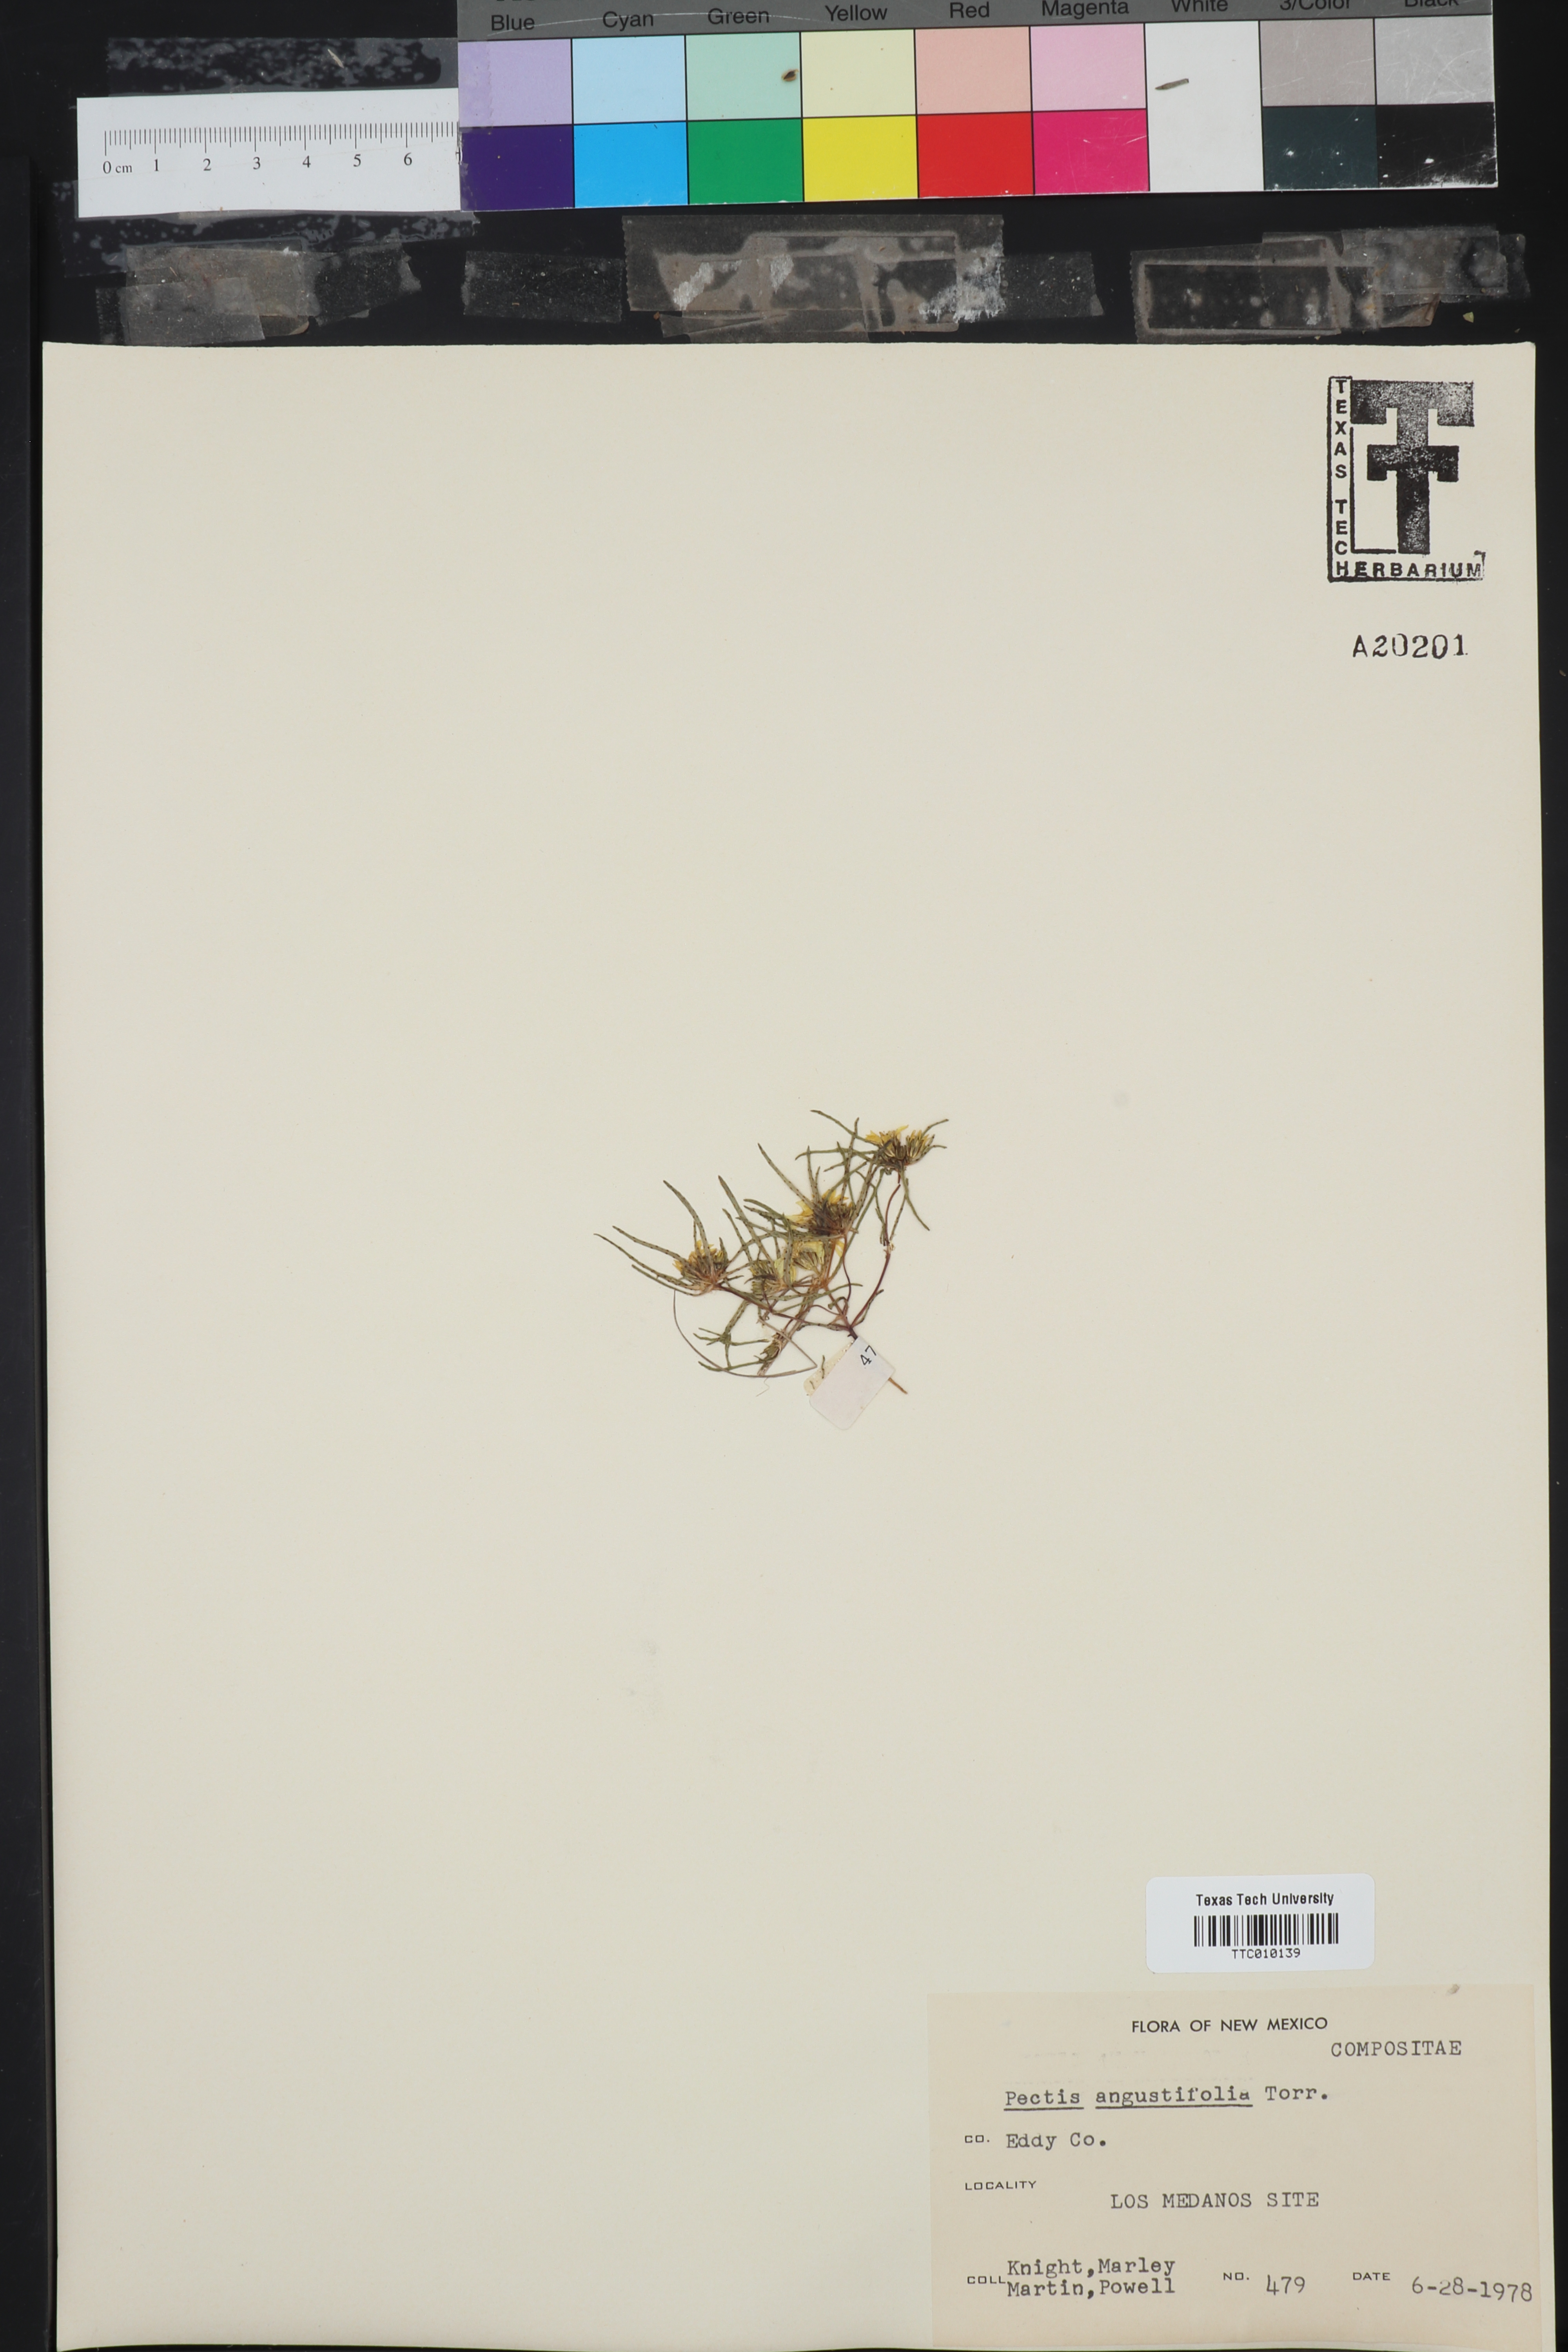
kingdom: Plantae
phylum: Tracheophyta
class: Magnoliopsida
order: Asterales
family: Asteraceae
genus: Pectis
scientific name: Pectis angustifolia
